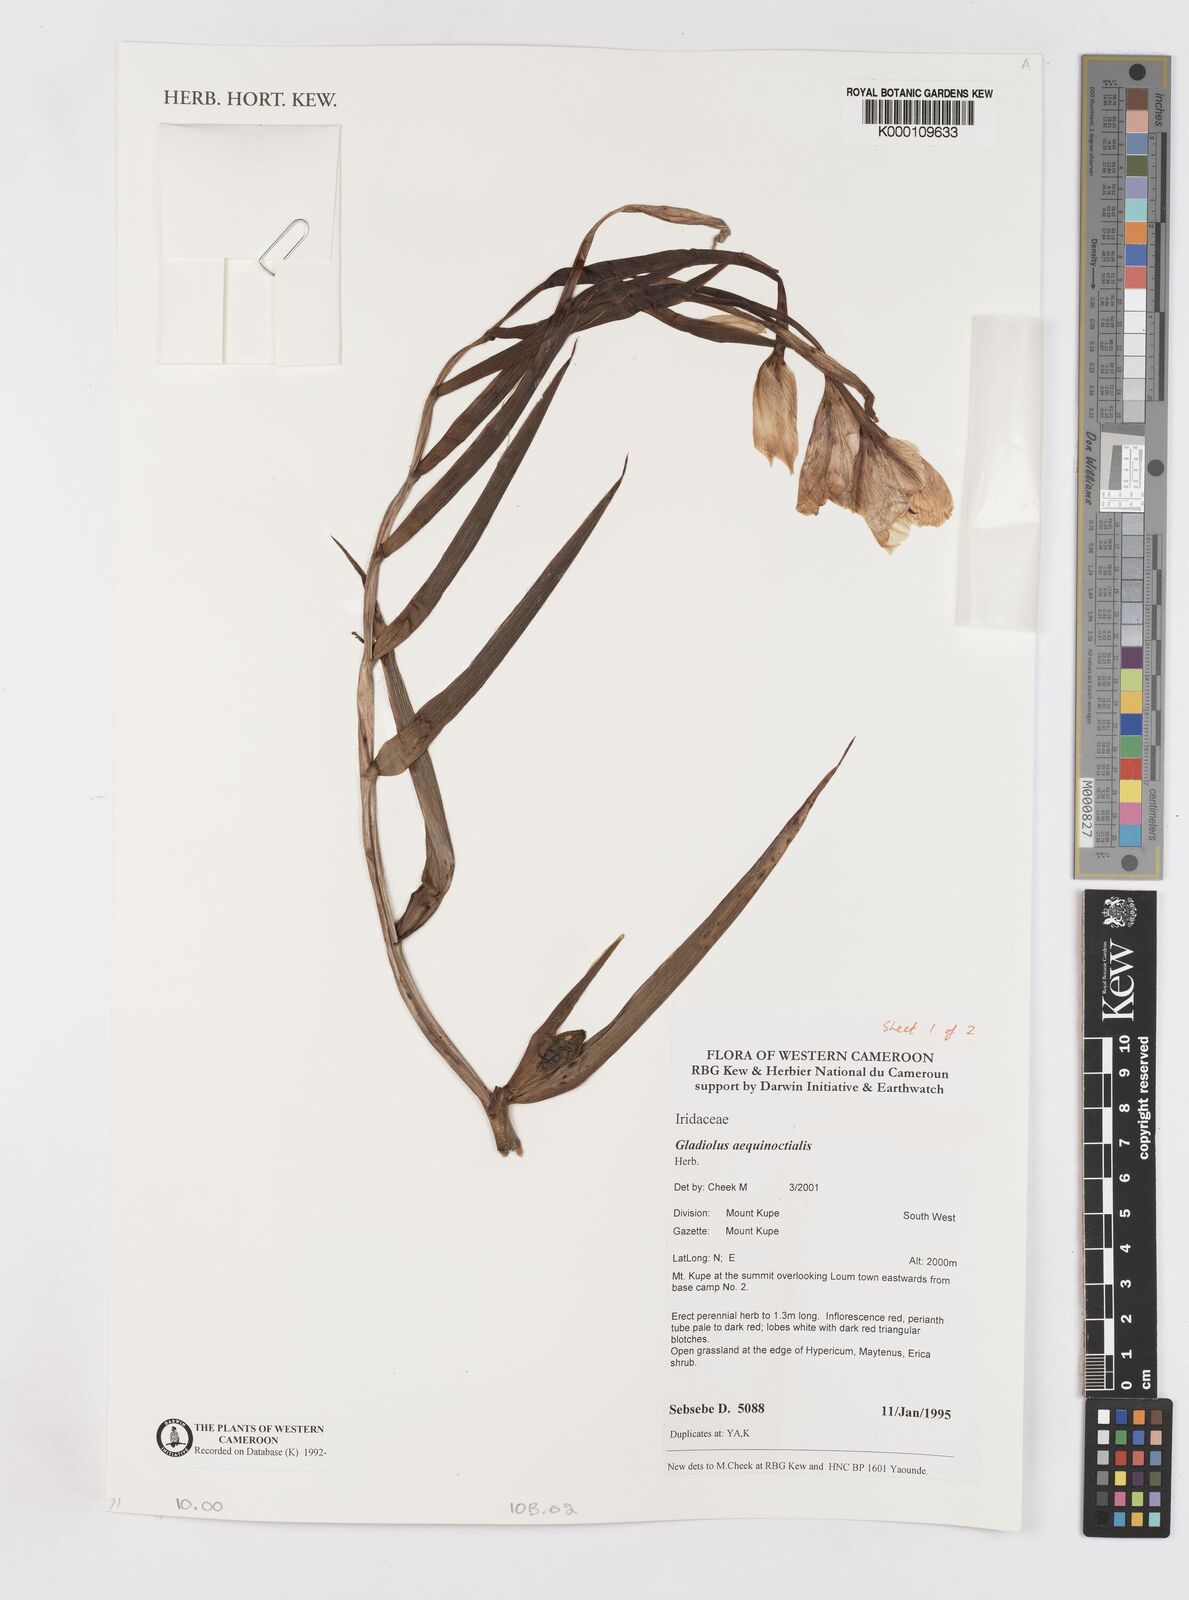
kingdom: Plantae
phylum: Tracheophyta
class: Liliopsida
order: Asparagales
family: Iridaceae
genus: Gladiolus
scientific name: Gladiolus aequinoctialis
